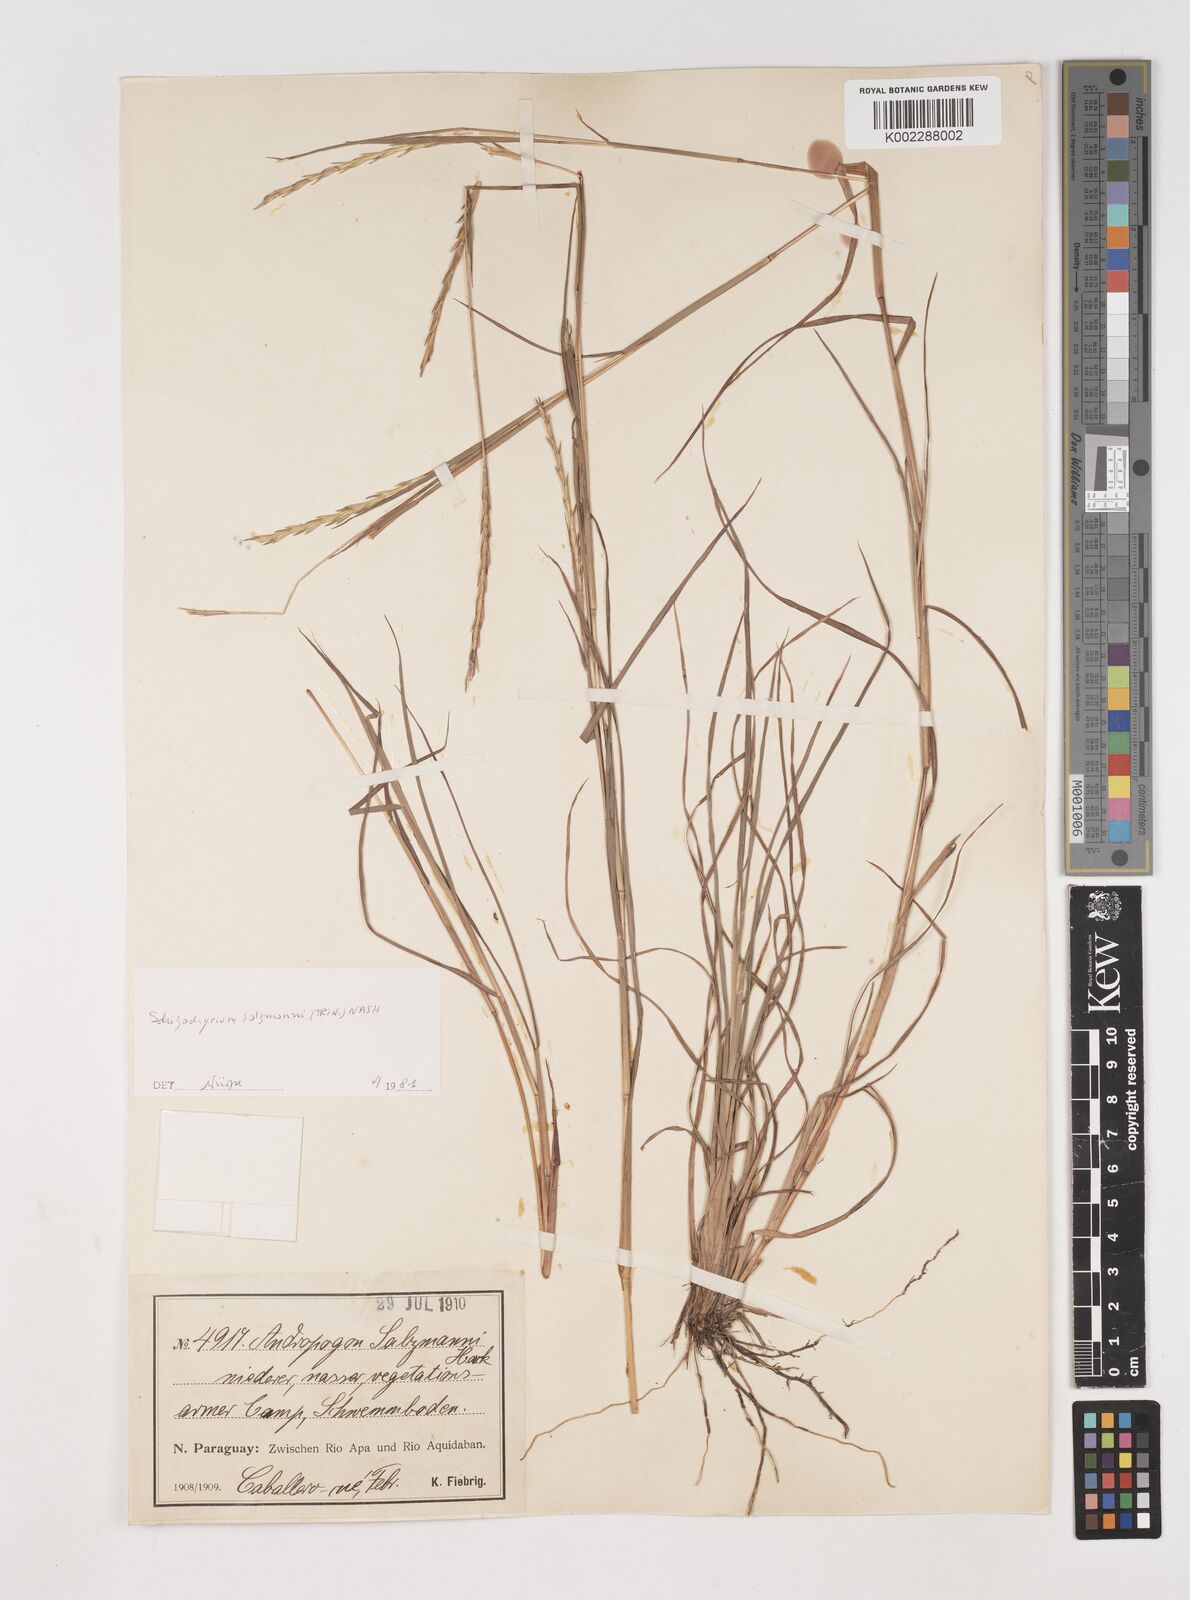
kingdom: Plantae
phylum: Tracheophyta
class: Liliopsida
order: Poales
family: Poaceae
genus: Andropogon
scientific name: Andropogon salzmannii
